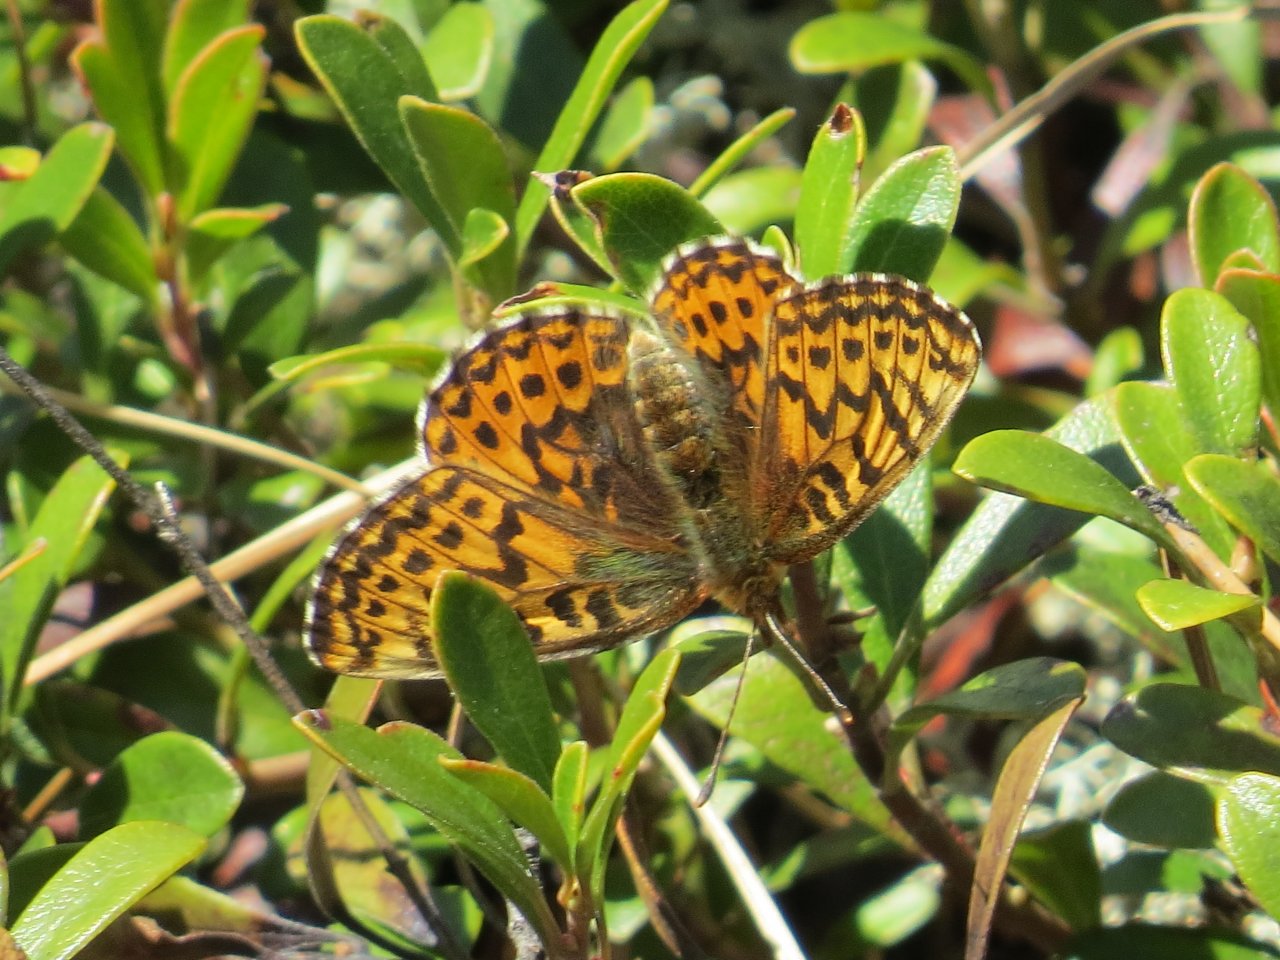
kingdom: Animalia
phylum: Arthropoda
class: Insecta
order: Lepidoptera
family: Nymphalidae
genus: Boloria
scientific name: Boloria freija
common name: Freija Fritillary
